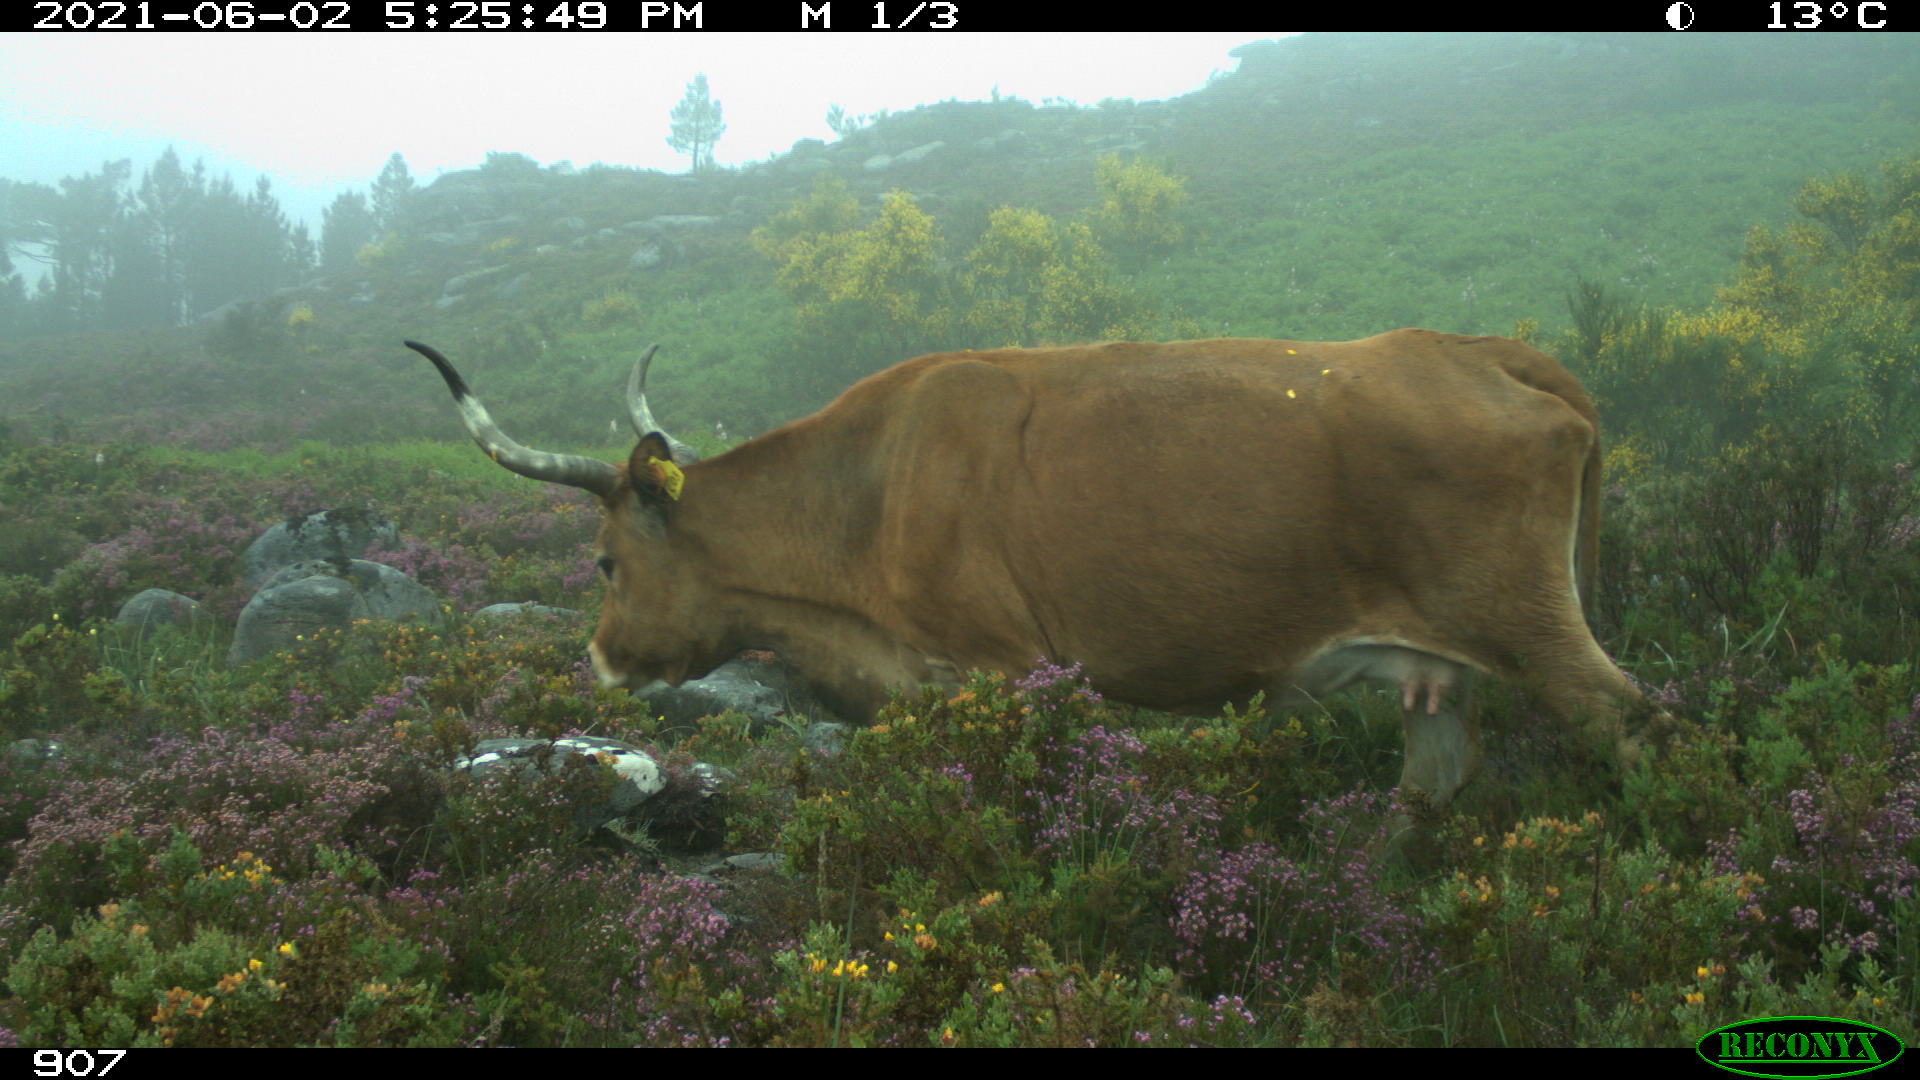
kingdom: Animalia
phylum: Chordata
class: Mammalia
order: Artiodactyla
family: Bovidae
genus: Bos
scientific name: Bos taurus
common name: Domesticated cattle
